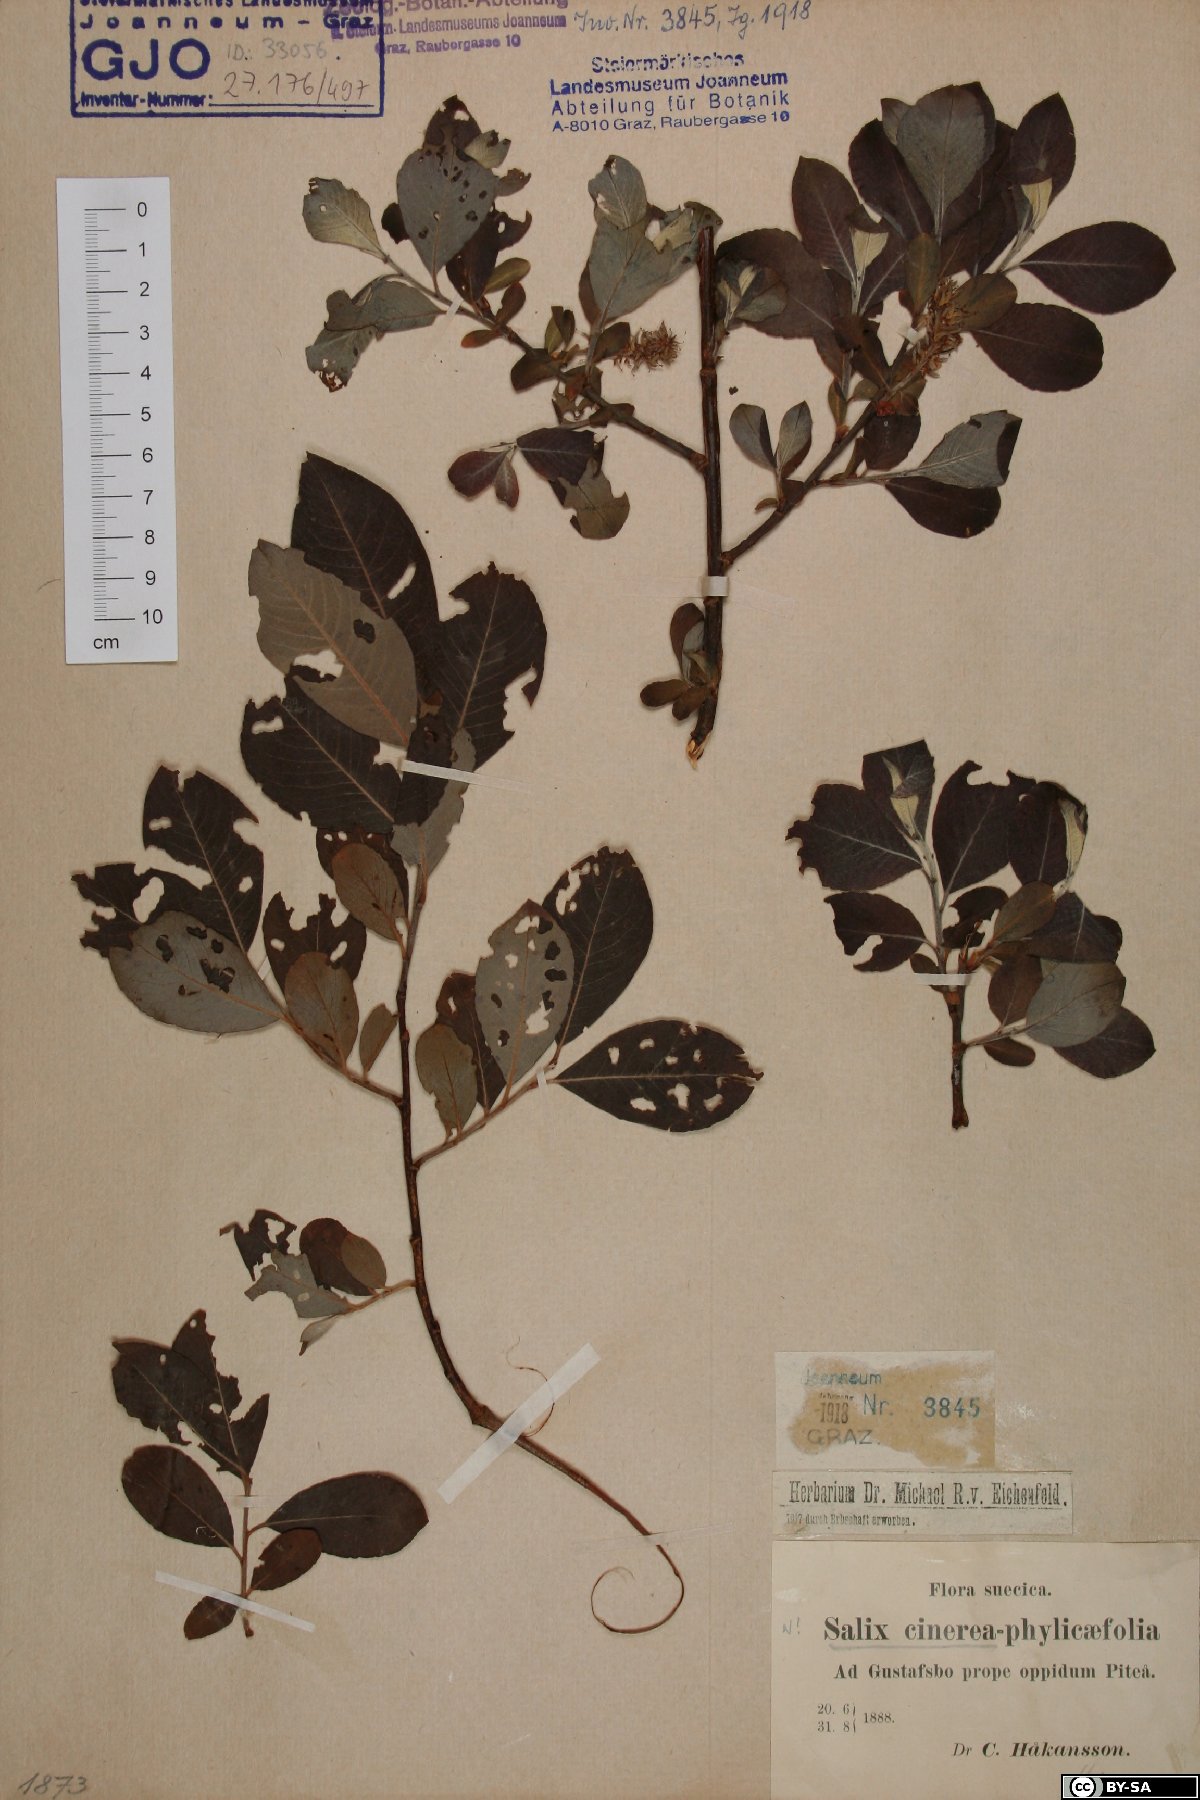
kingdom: Plantae
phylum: Tracheophyta
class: Magnoliopsida
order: Malpighiales
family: Salicaceae
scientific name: Salicaceae
